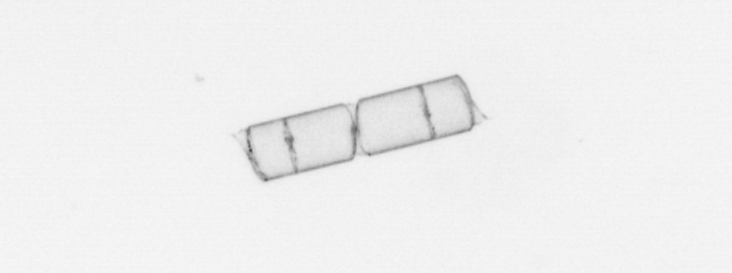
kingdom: Chromista
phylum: Ochrophyta
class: Bacillariophyceae
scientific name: Bacillariophyceae
